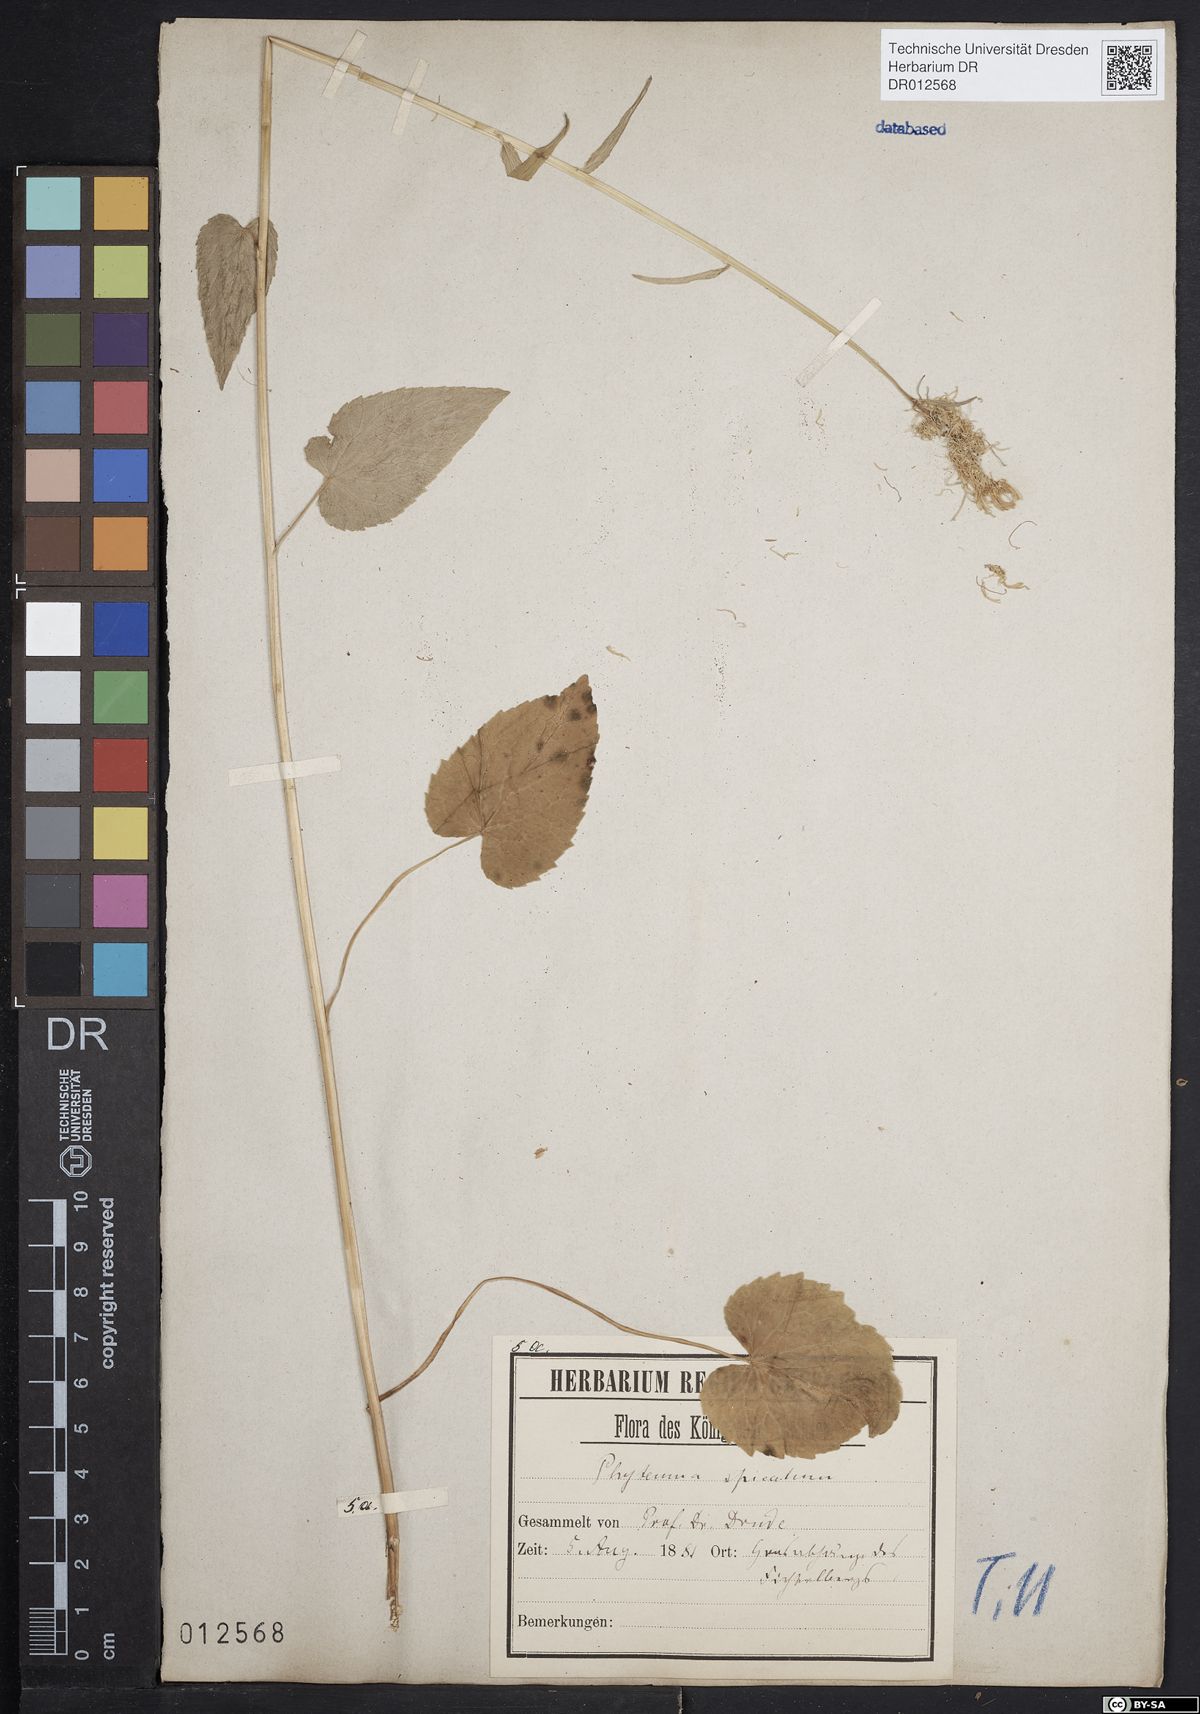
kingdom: Plantae
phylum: Tracheophyta
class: Magnoliopsida
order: Asterales
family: Campanulaceae
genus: Phyteuma
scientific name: Phyteuma spicatum
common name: Spiked rampion
